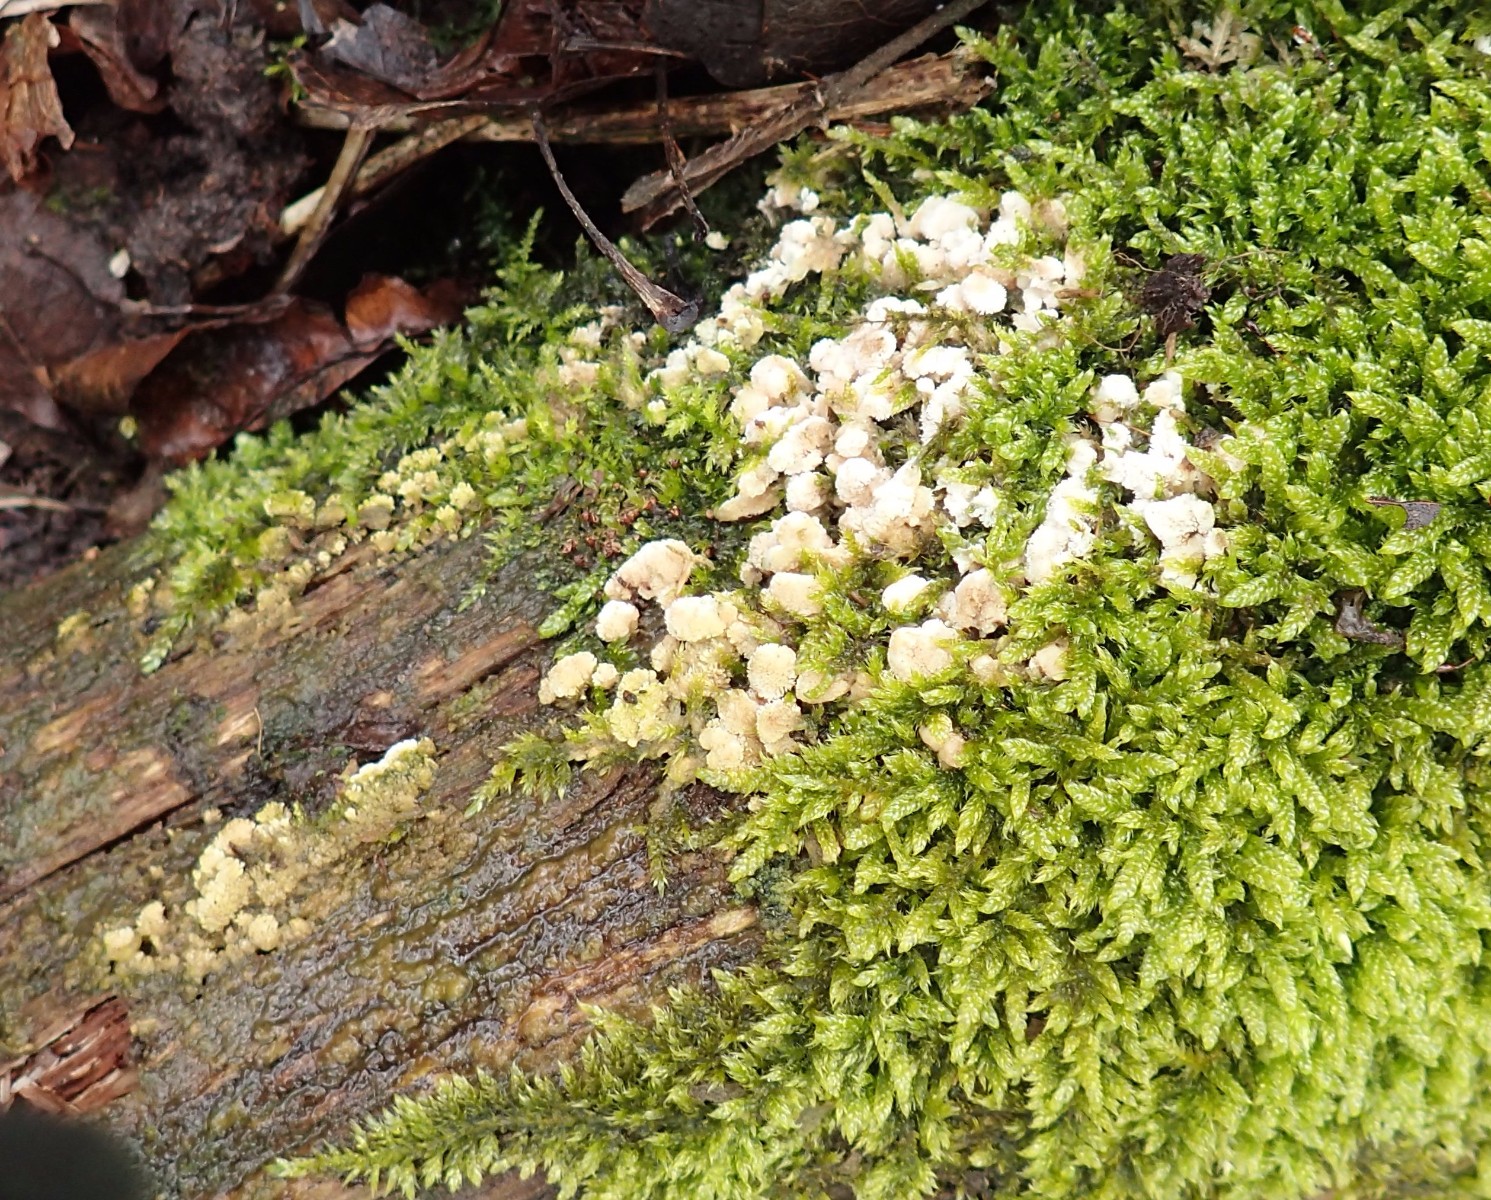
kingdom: Fungi
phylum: Basidiomycota
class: Agaricomycetes
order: Hymenochaetales
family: Schizoporaceae
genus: Xylodon
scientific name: Xylodon
